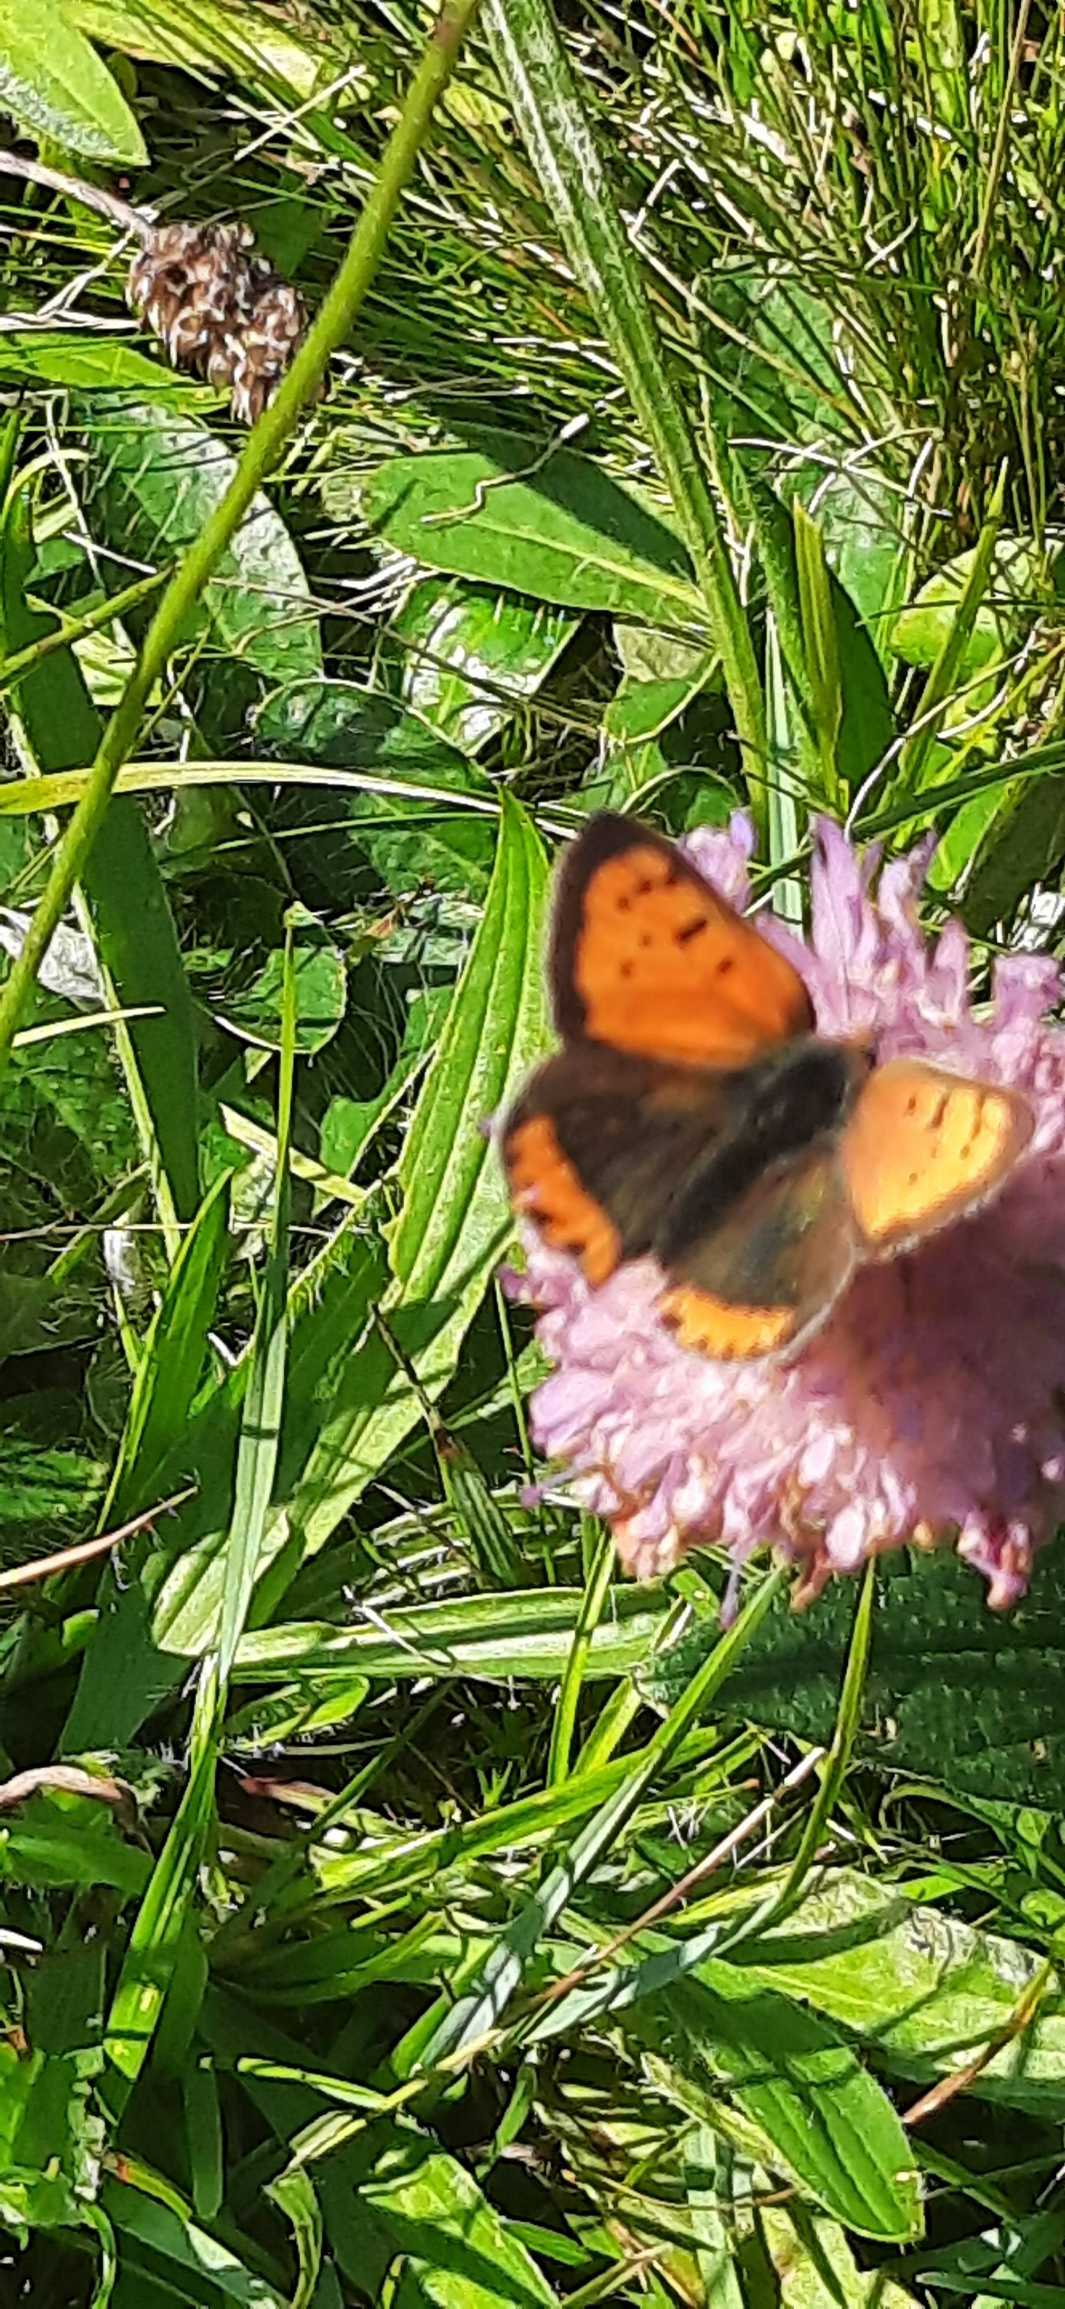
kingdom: Animalia
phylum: Arthropoda
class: Insecta
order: Lepidoptera
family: Lycaenidae
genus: Lycaena
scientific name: Lycaena phlaeas
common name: Lille ildfugl
